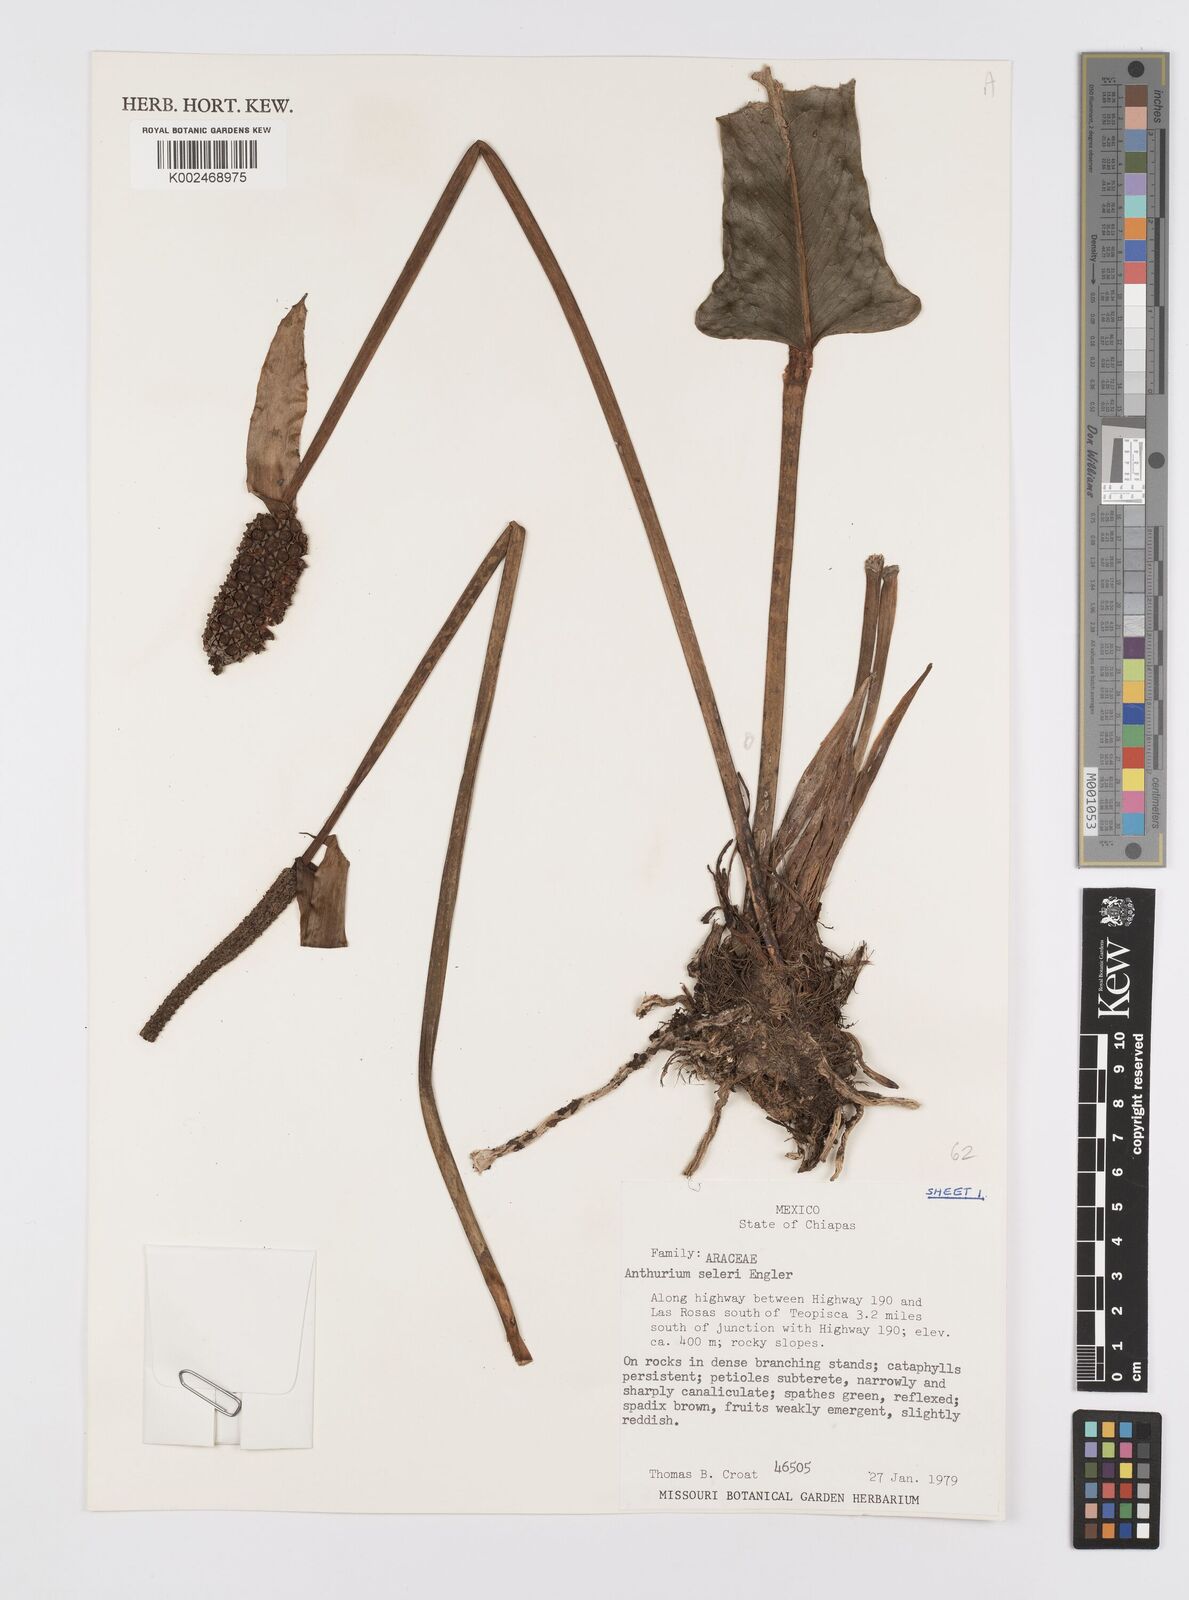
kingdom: Plantae
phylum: Tracheophyta
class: Liliopsida
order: Alismatales
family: Araceae
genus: Anthurium
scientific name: Anthurium seleri
